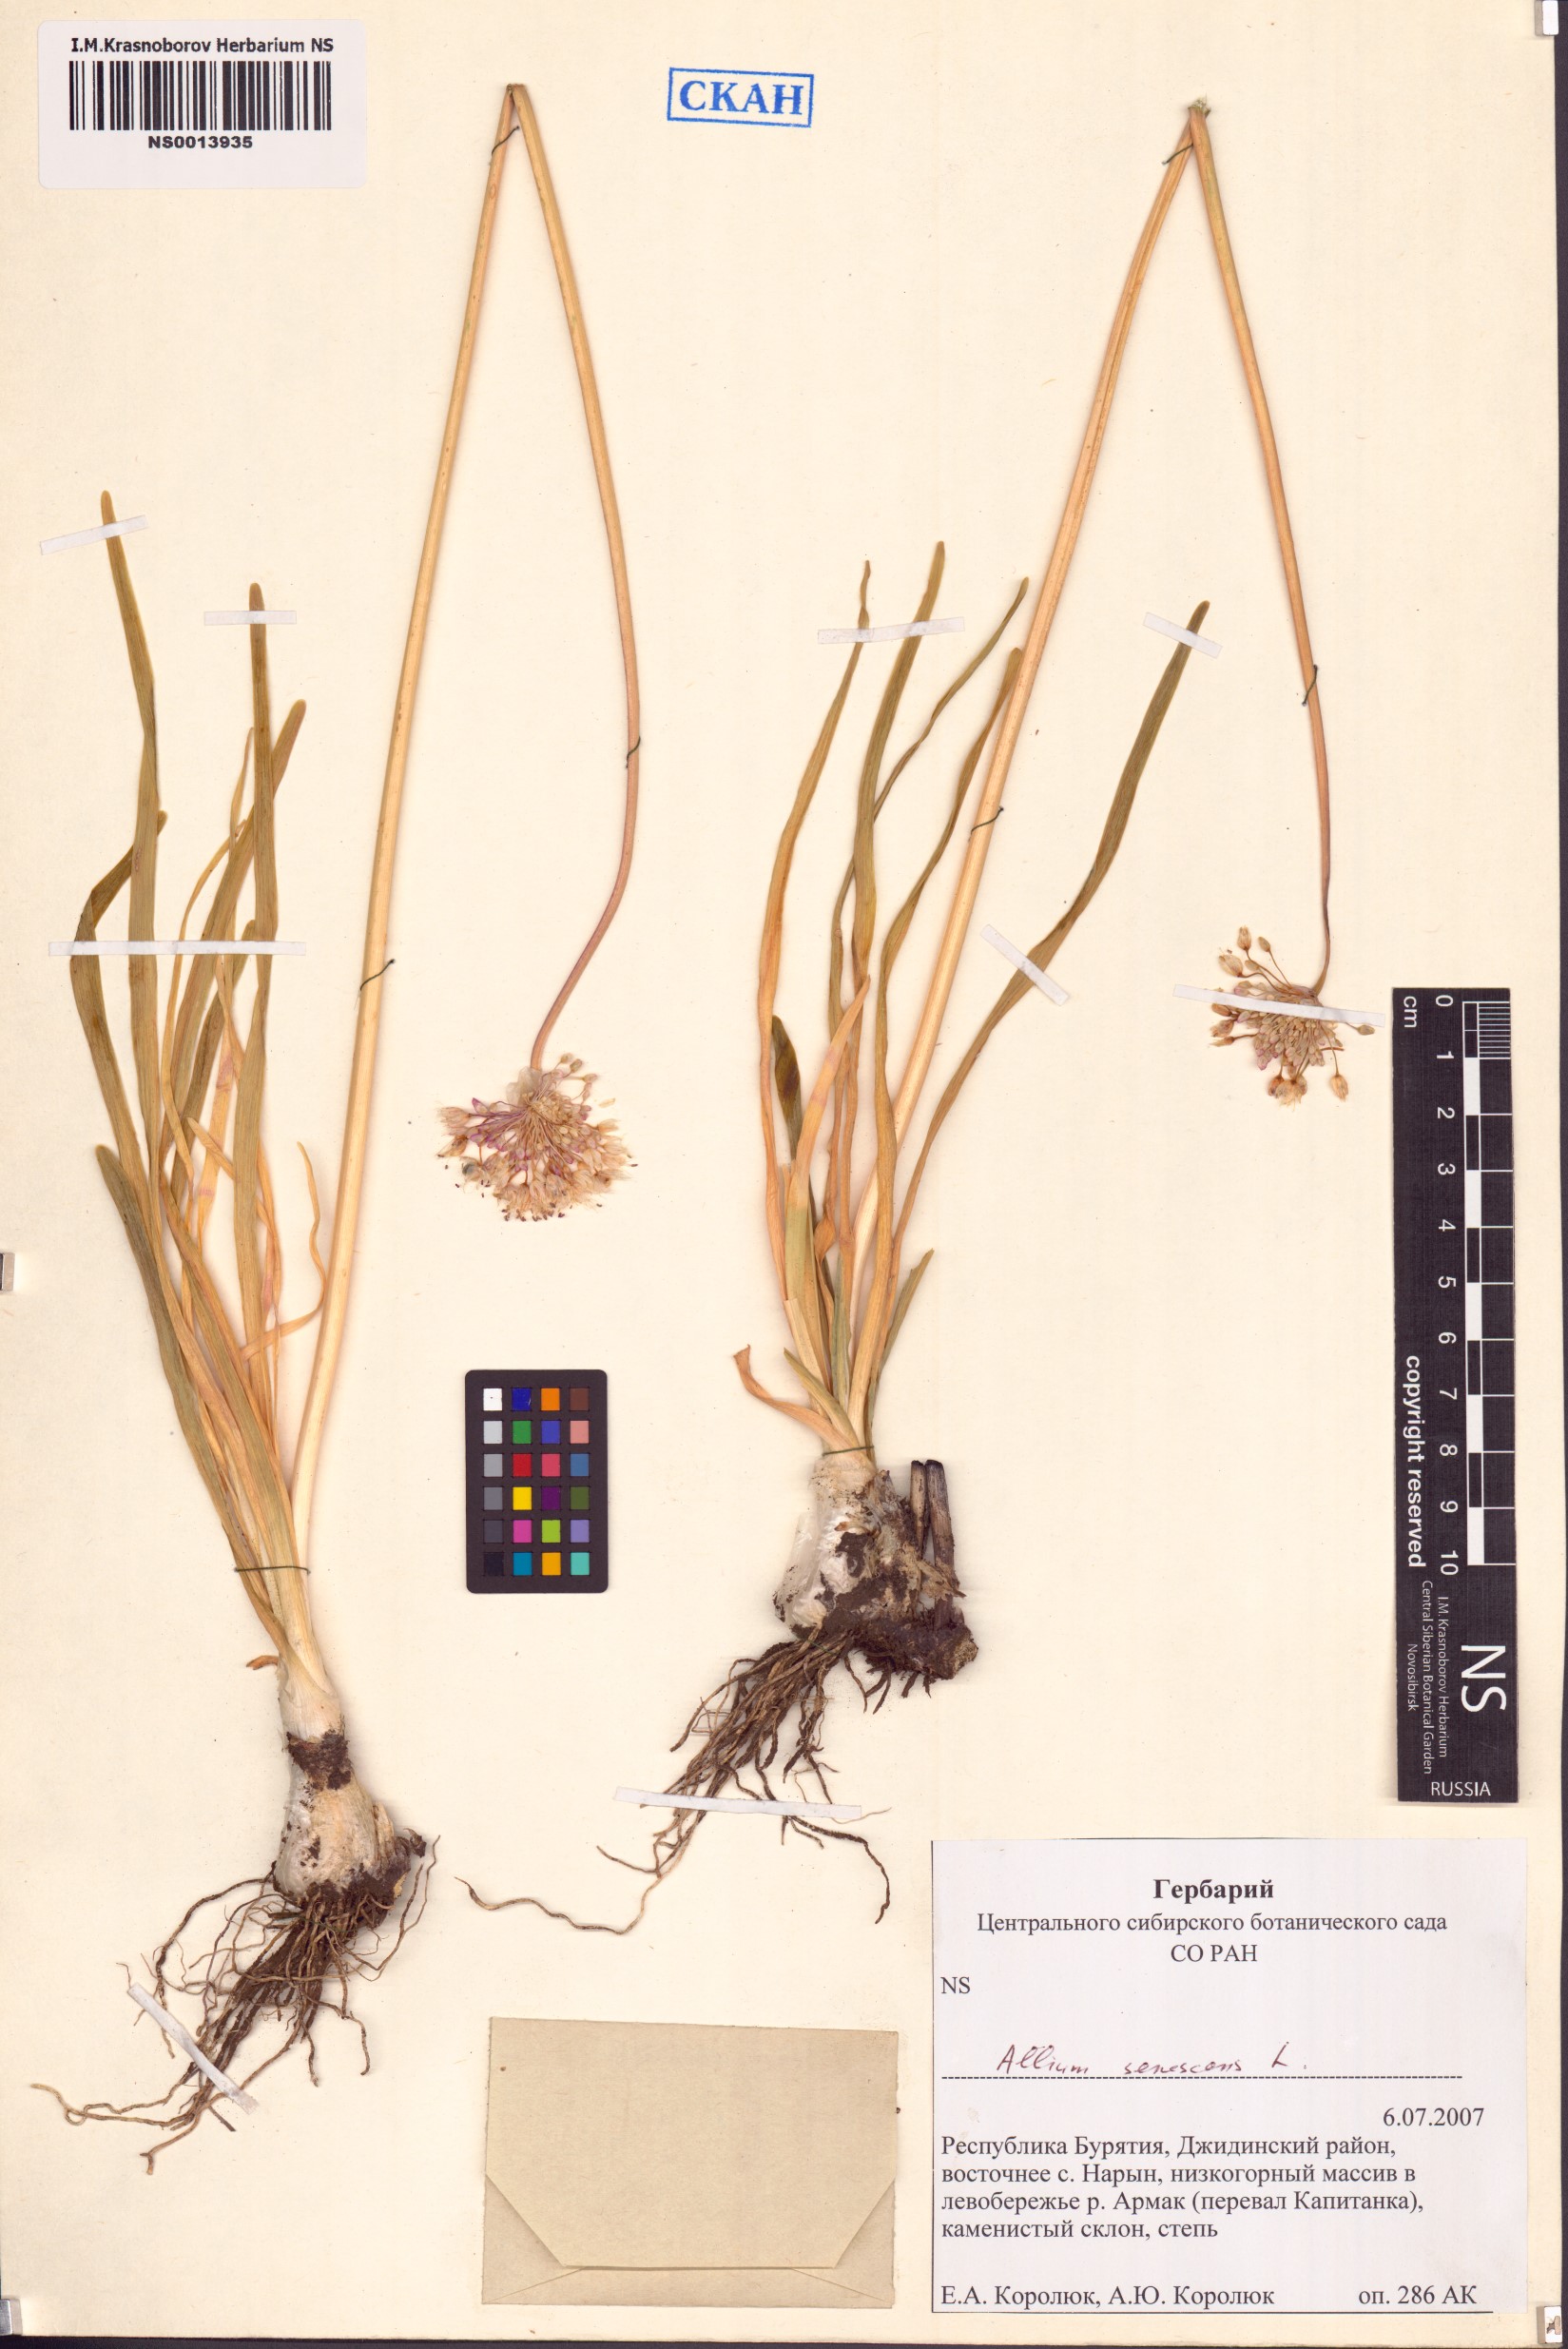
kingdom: Plantae
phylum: Tracheophyta
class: Liliopsida
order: Asparagales
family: Amaryllidaceae
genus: Allium
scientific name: Allium senescens
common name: German garlic
